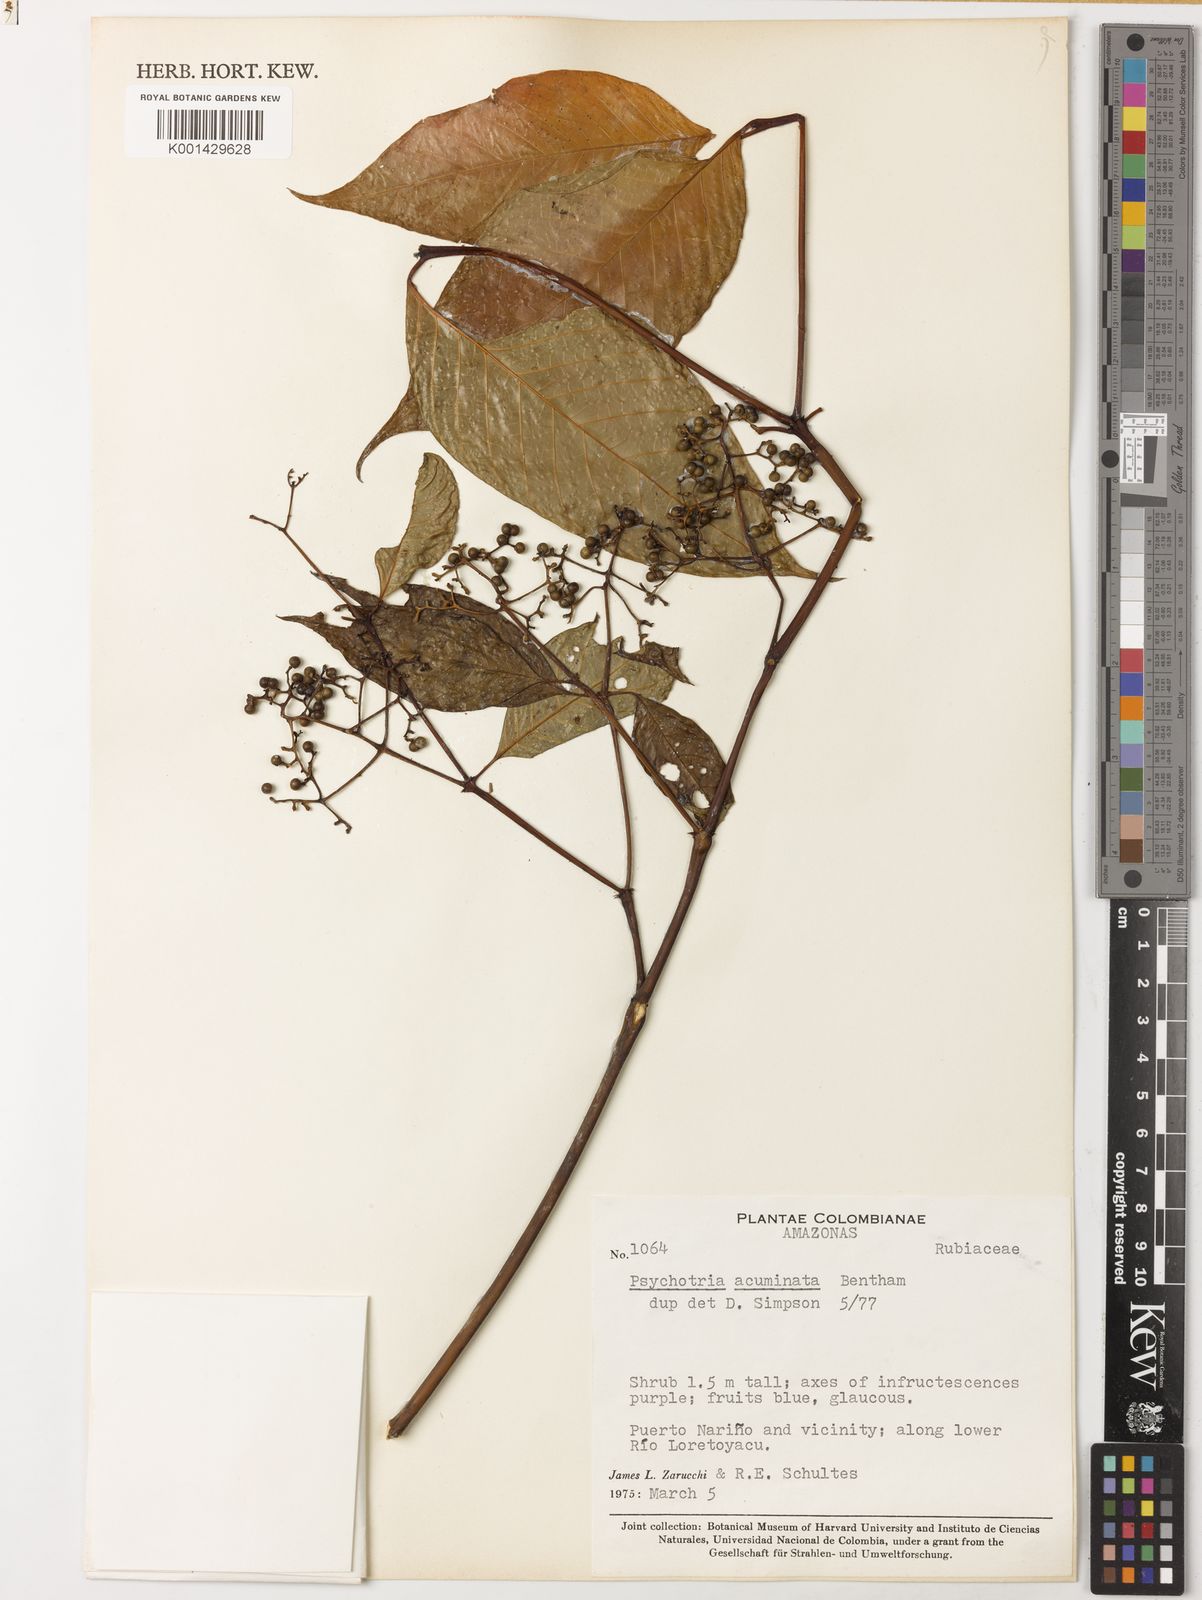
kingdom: Plantae
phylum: Tracheophyta
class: Magnoliopsida
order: Gentianales
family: Rubiaceae
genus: Palicourea
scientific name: Palicourea acuminata
